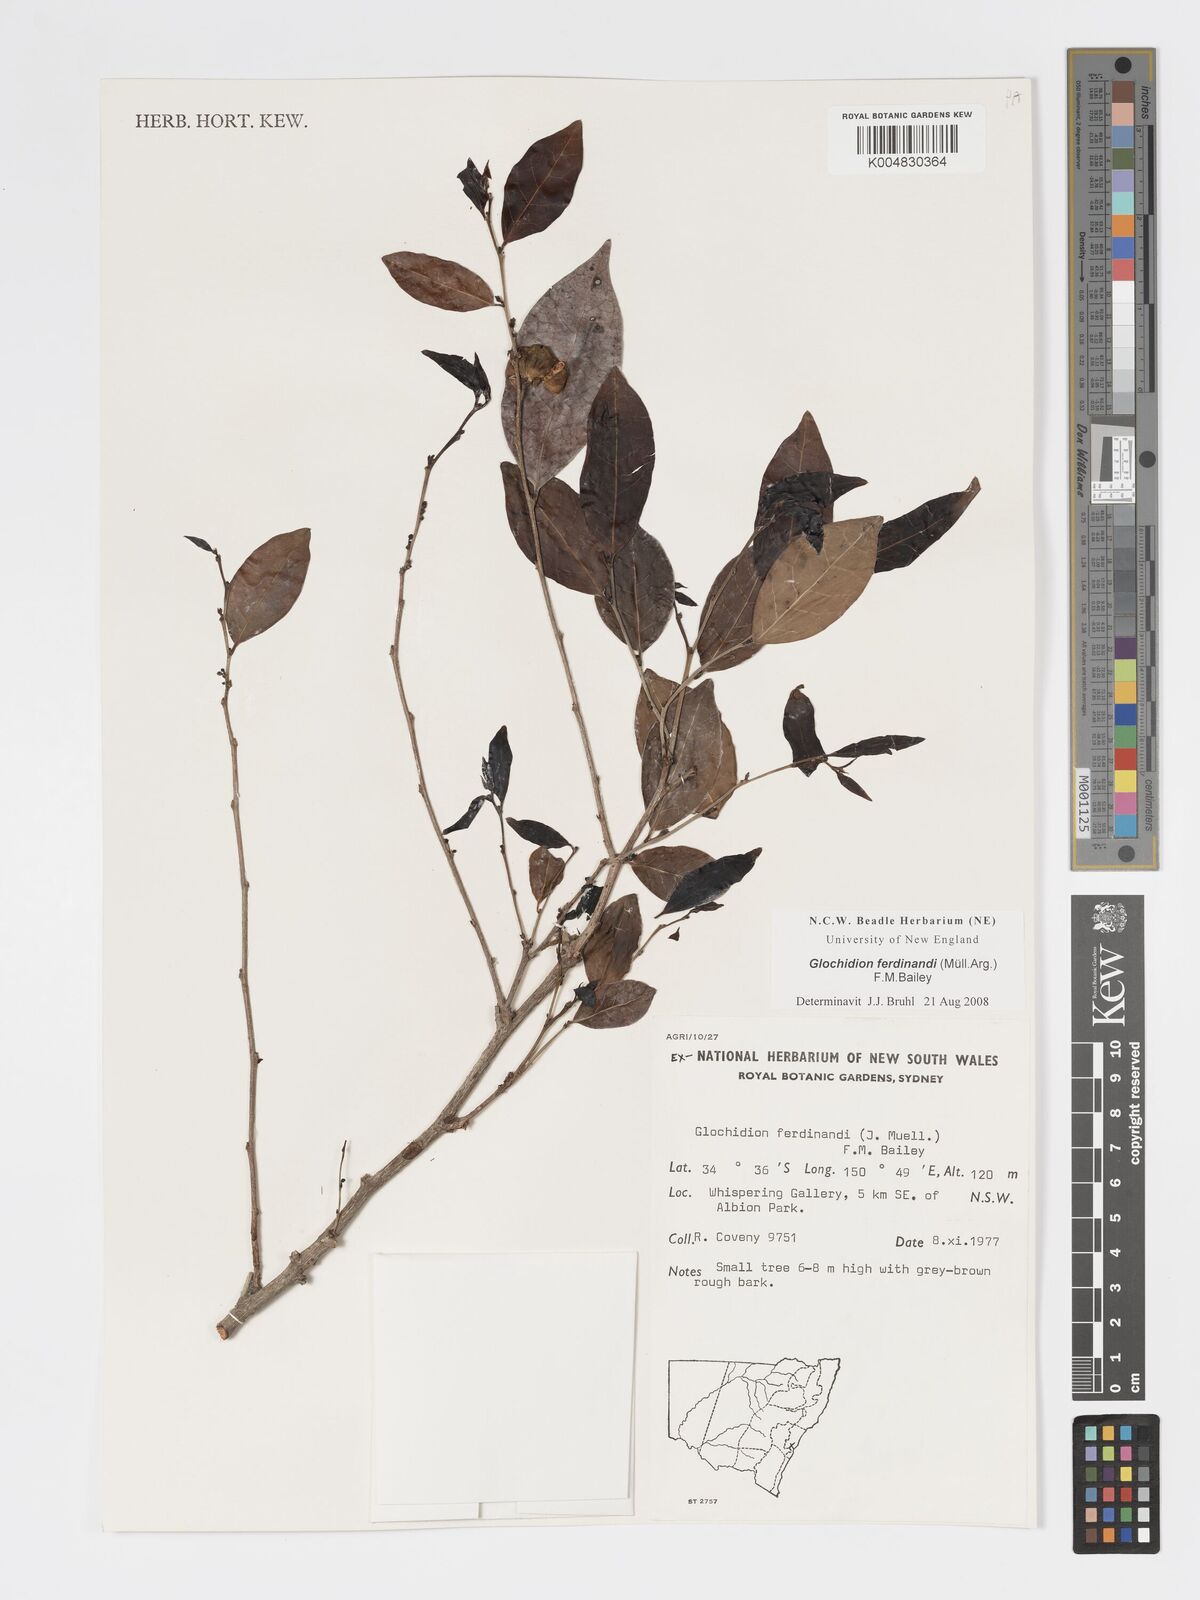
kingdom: Plantae
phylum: Tracheophyta
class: Magnoliopsida
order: Malpighiales
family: Phyllanthaceae
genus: Glochidion
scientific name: Glochidion ferdinandi
